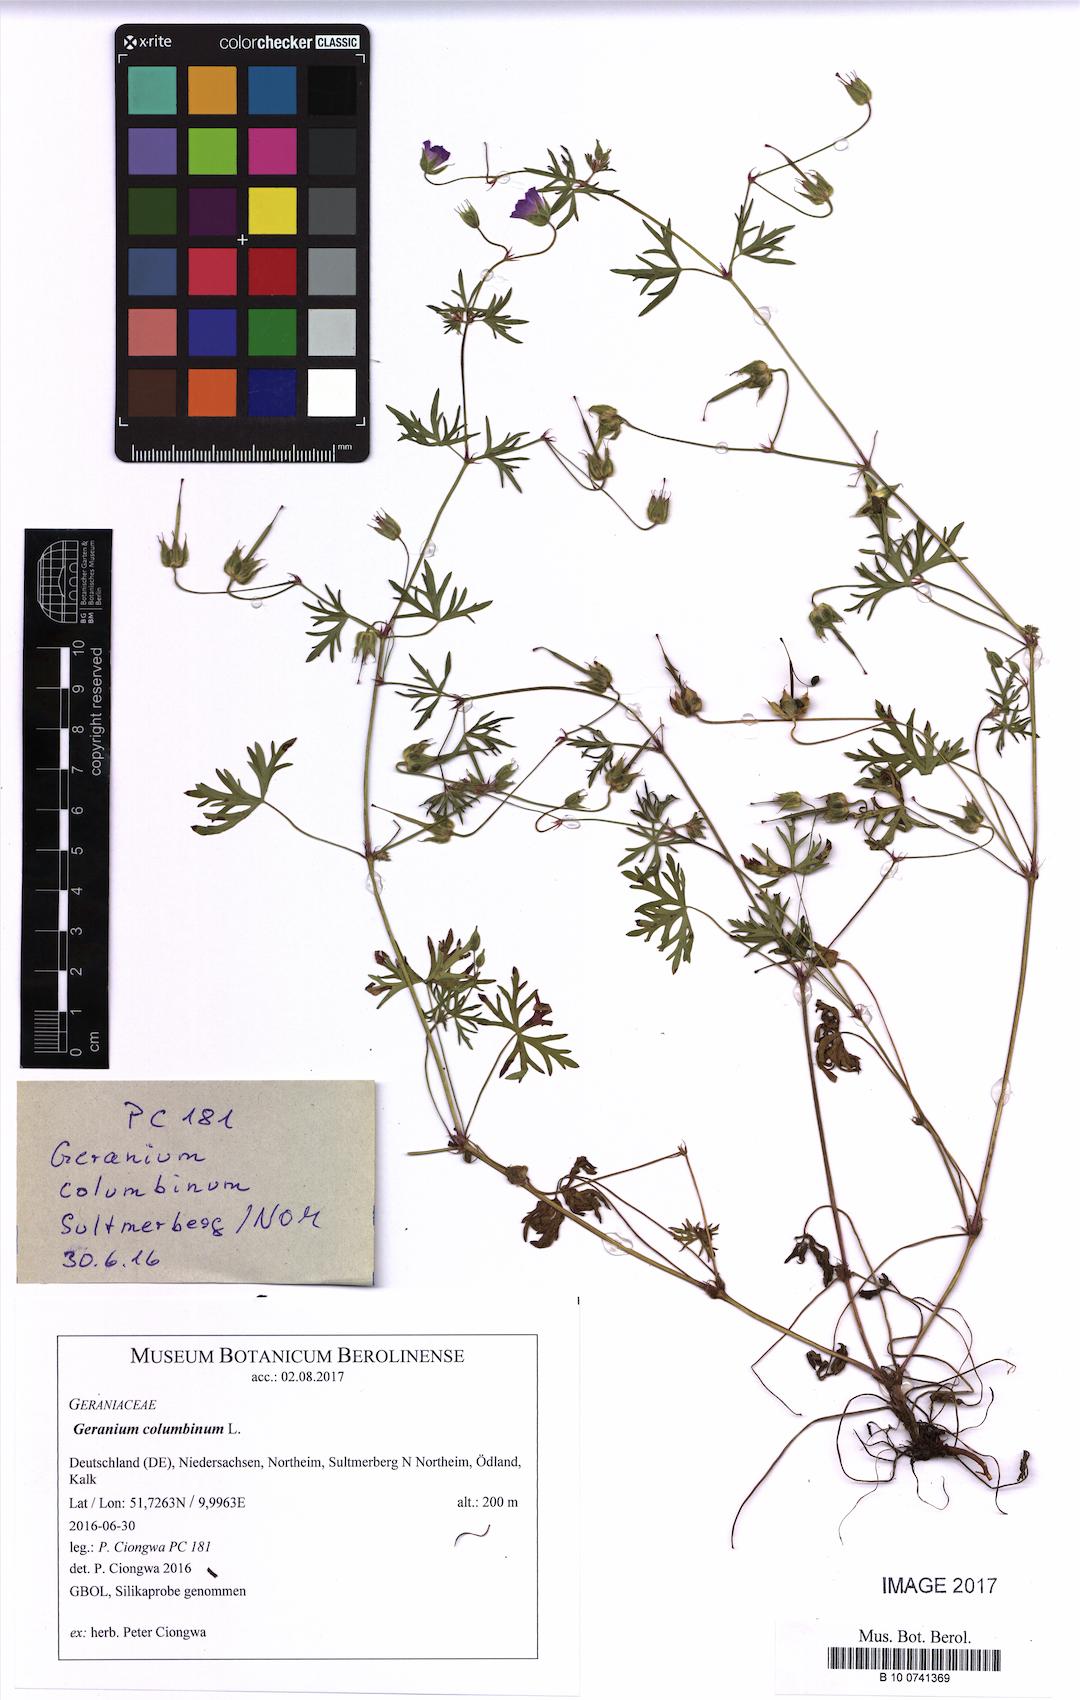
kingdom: Plantae
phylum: Tracheophyta
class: Magnoliopsida
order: Geraniales
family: Geraniaceae
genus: Geranium
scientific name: Geranium columbinum
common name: Long-stalked crane's-bill
